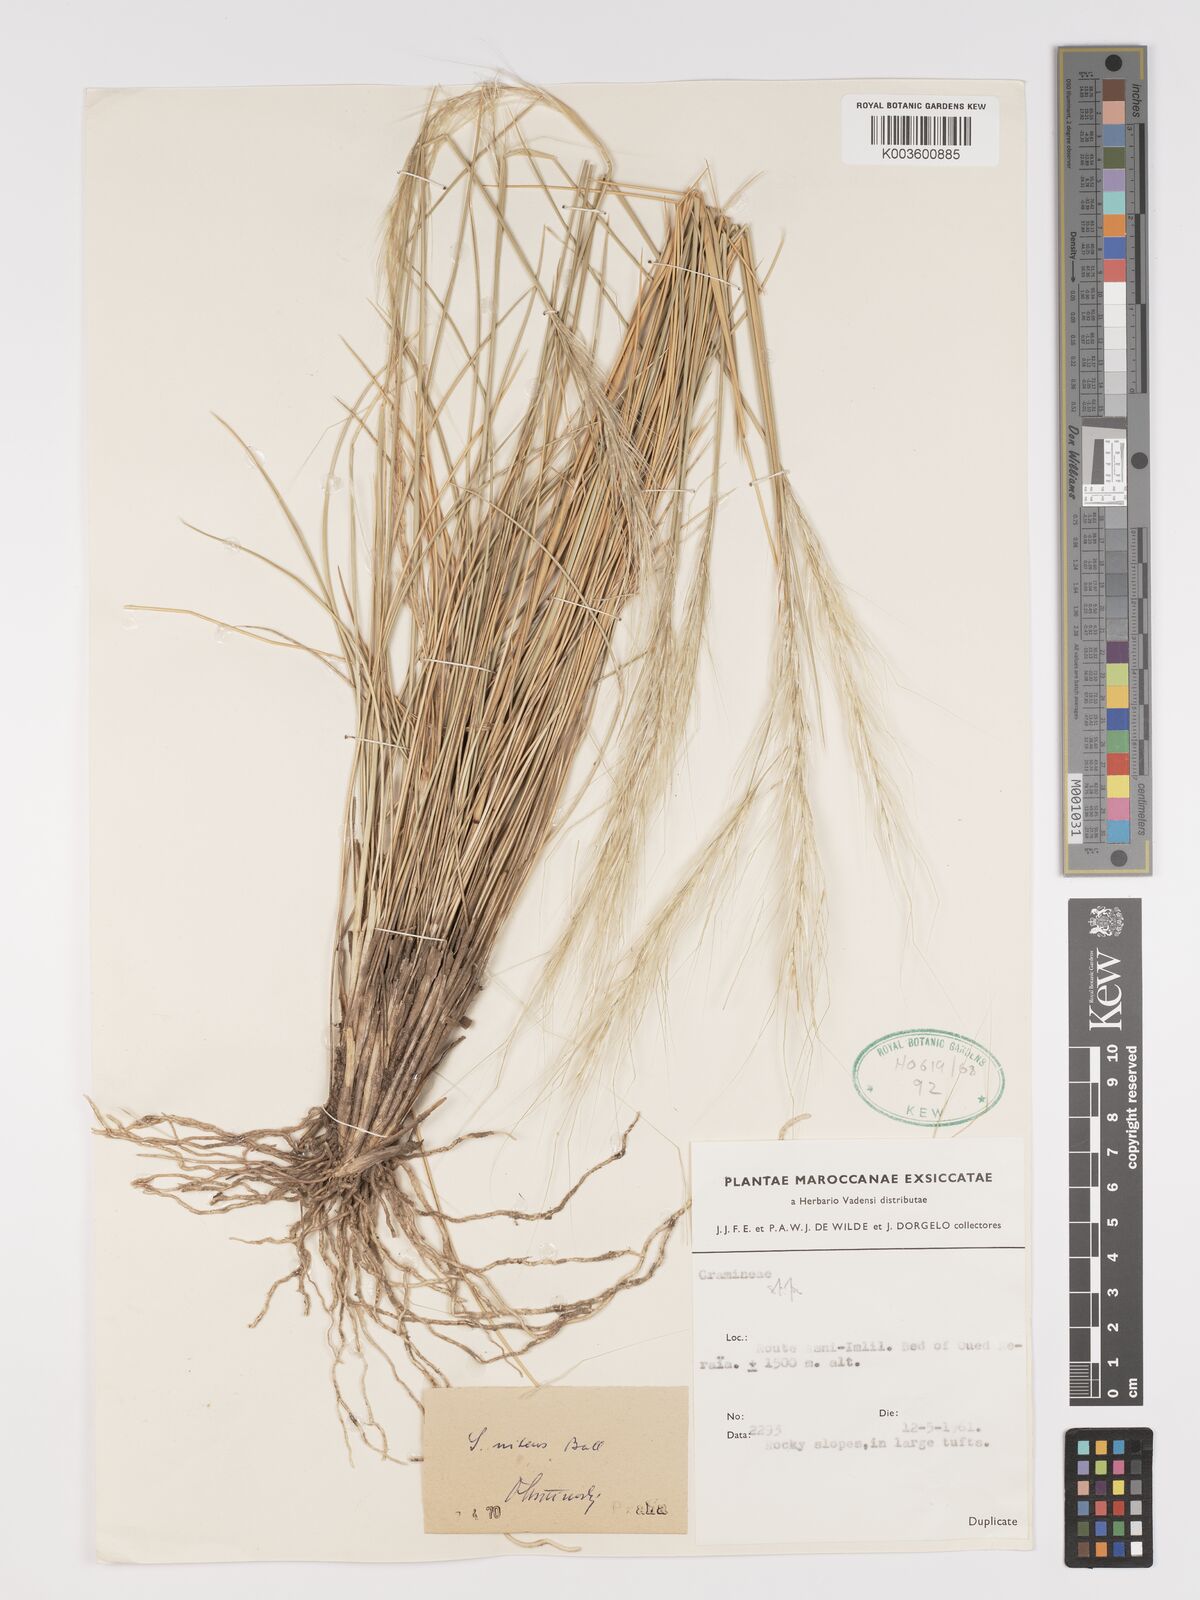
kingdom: Plantae
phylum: Tracheophyta
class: Liliopsida
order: Poales
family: Poaceae
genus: Stipa
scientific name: Stipa nitens
